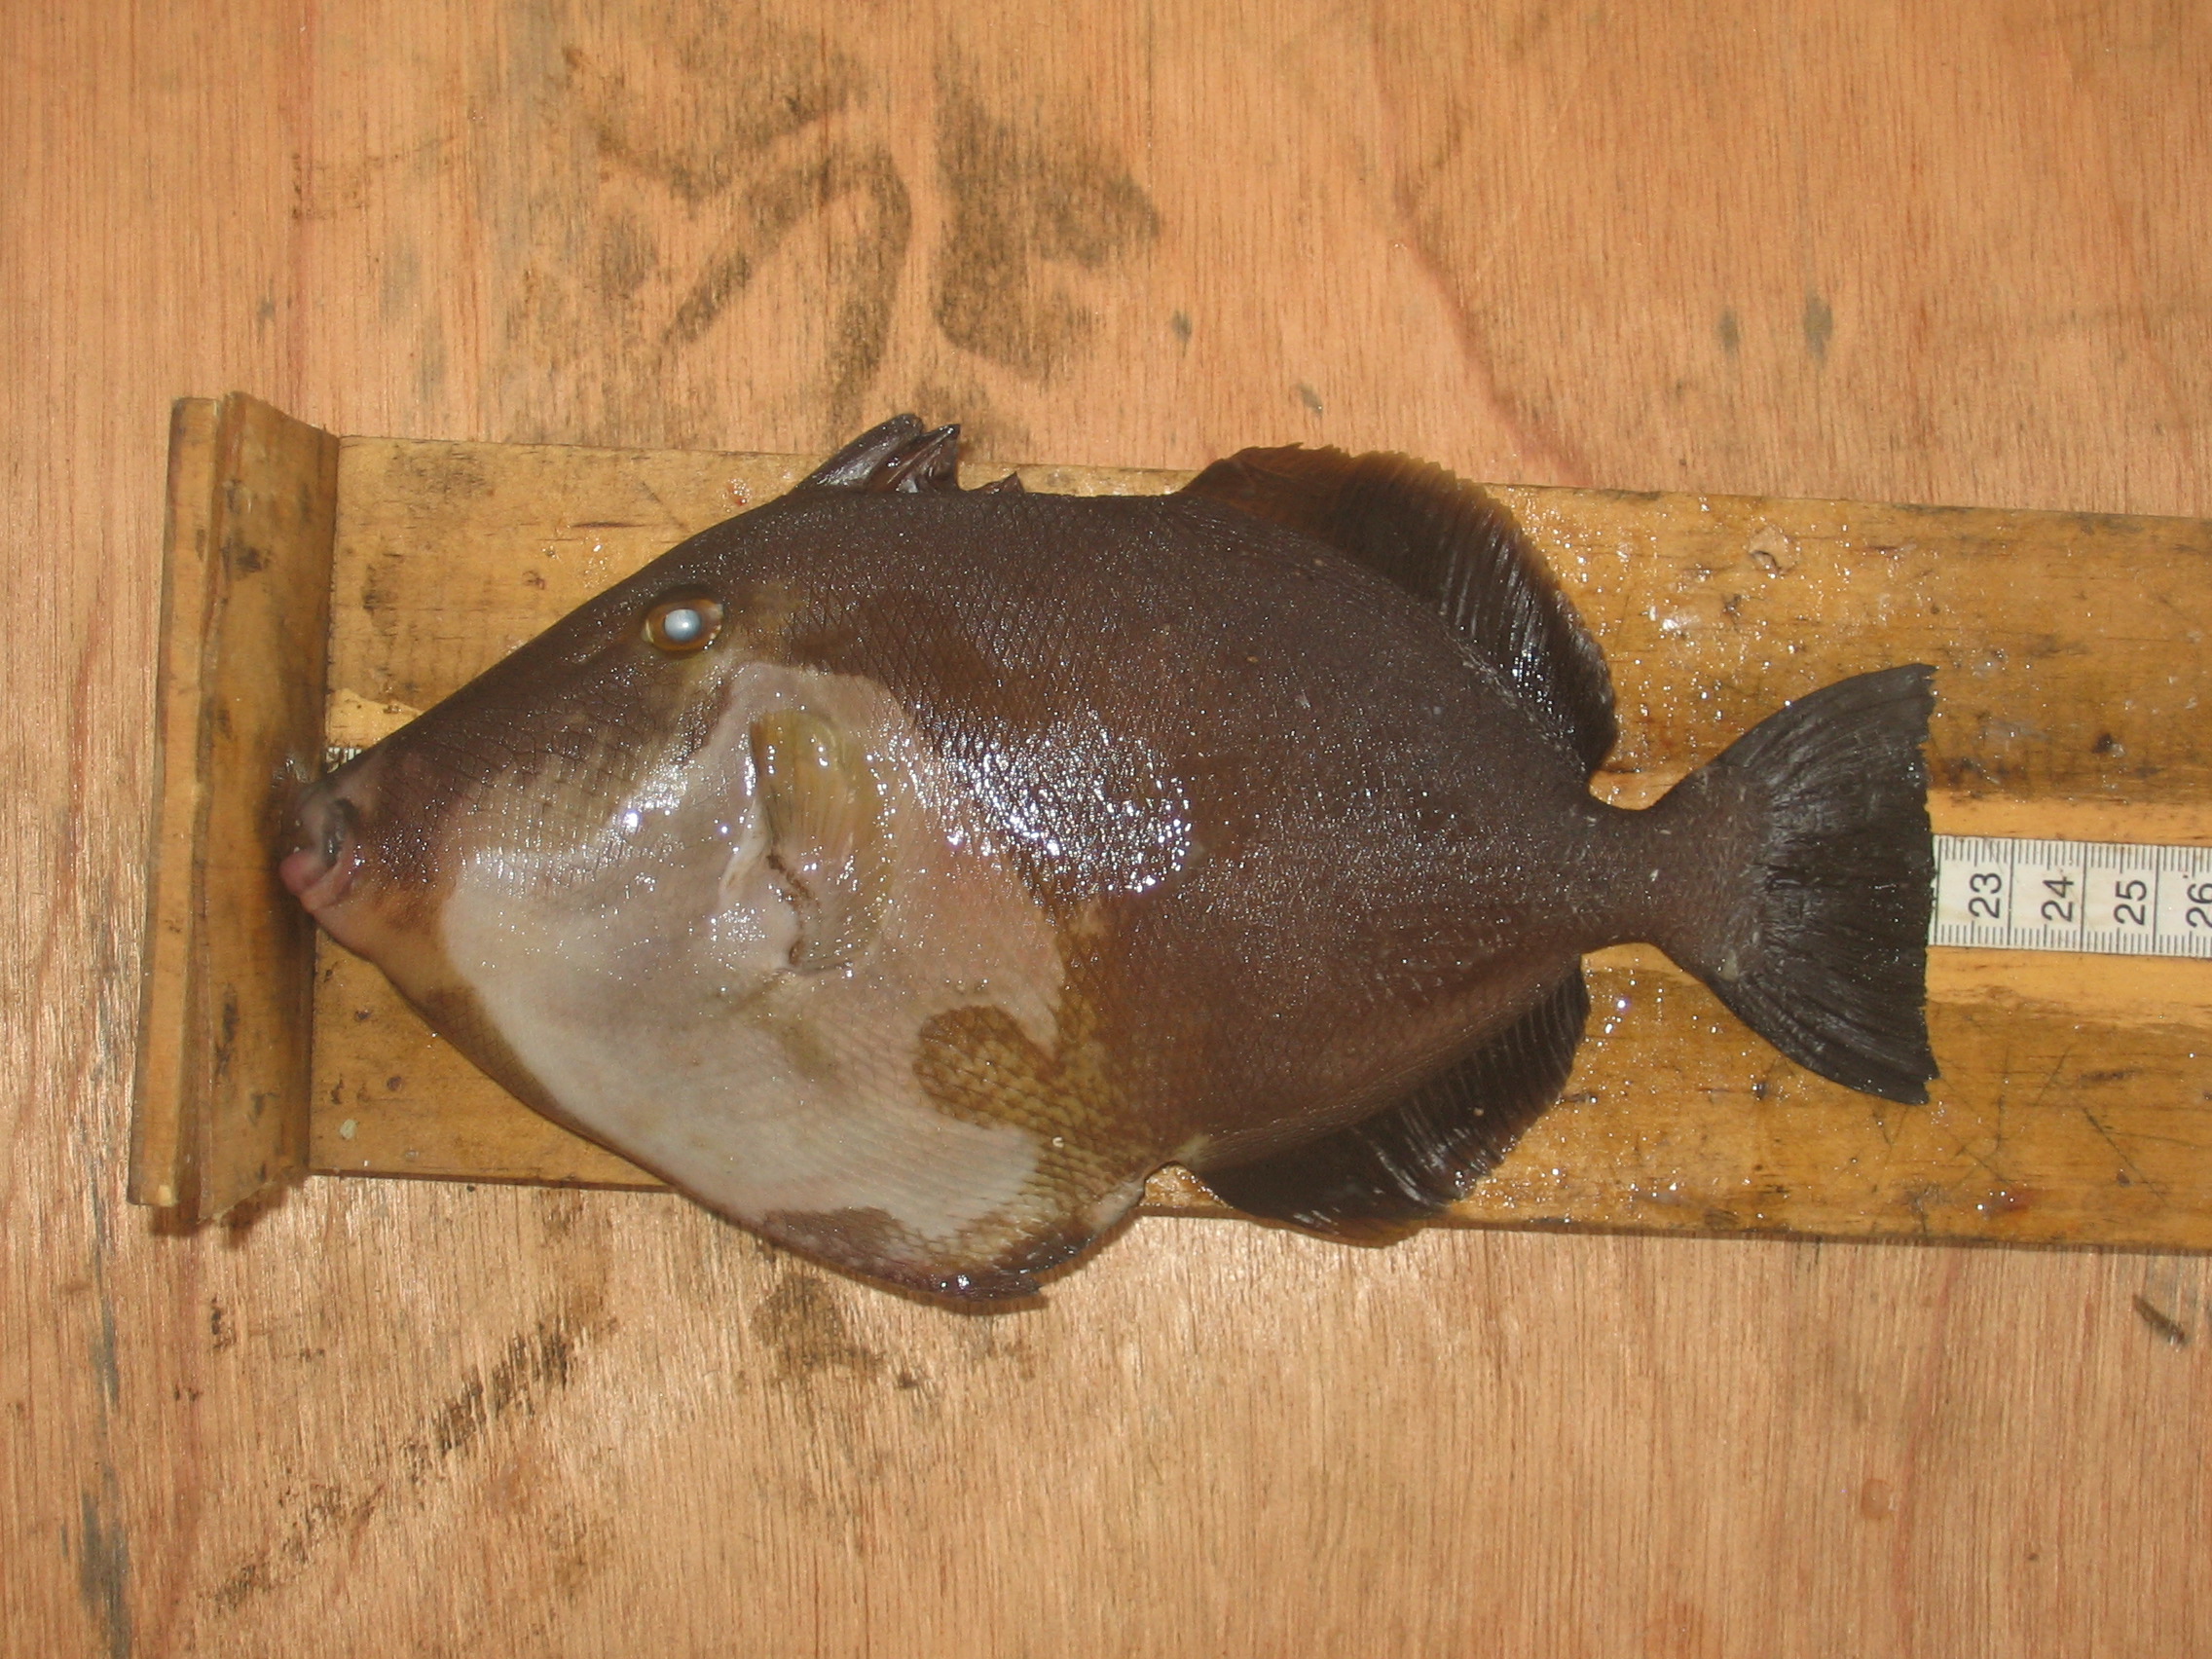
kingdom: Animalia
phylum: Chordata
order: Tetraodontiformes
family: Balistidae
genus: Sufflamen
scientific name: Sufflamen fraenatum
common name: Bridle triggerfish
